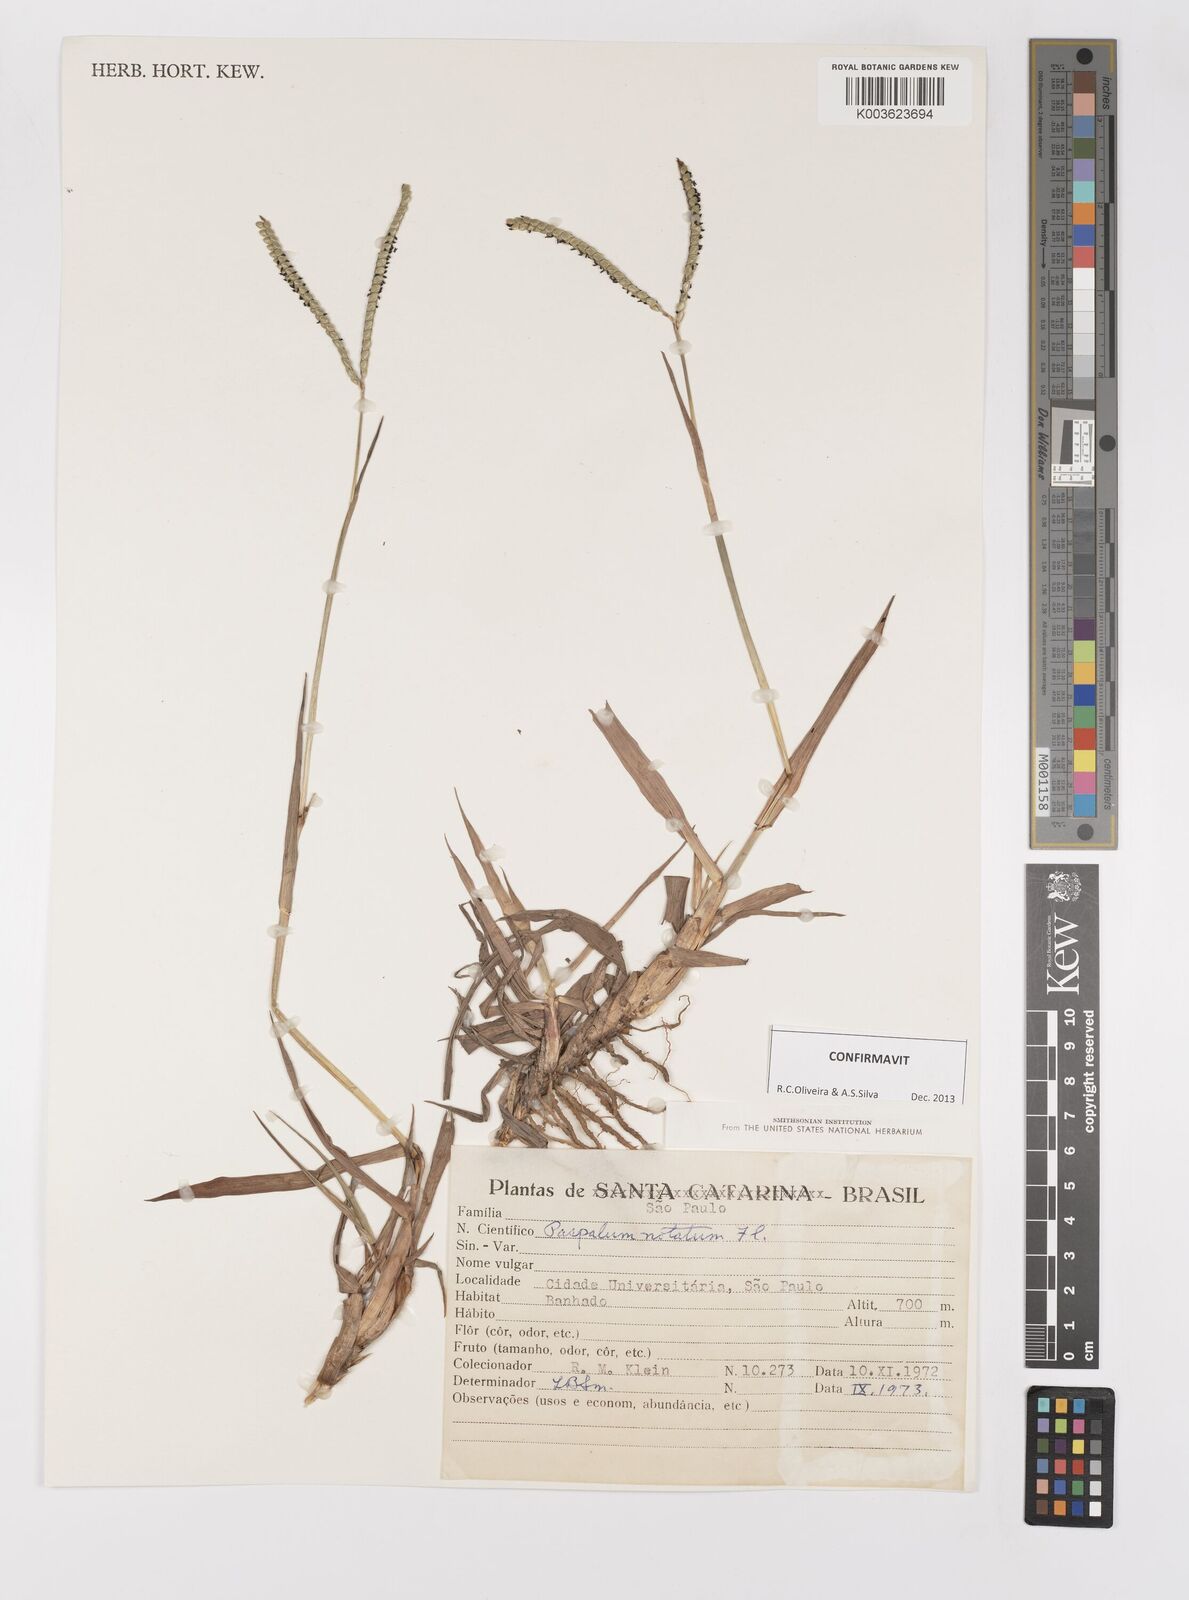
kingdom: Plantae
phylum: Tracheophyta
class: Liliopsida
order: Poales
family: Poaceae
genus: Paspalum
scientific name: Paspalum notatum
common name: Bahiagrass
